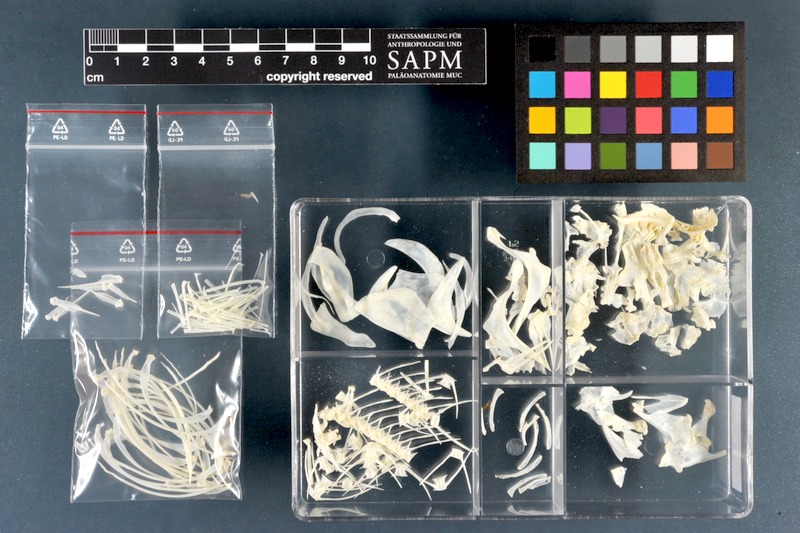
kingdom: Animalia
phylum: Chordata
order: Cypriniformes
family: Cyprinidae
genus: Rutilus
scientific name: Rutilus rutilus
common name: Roach
